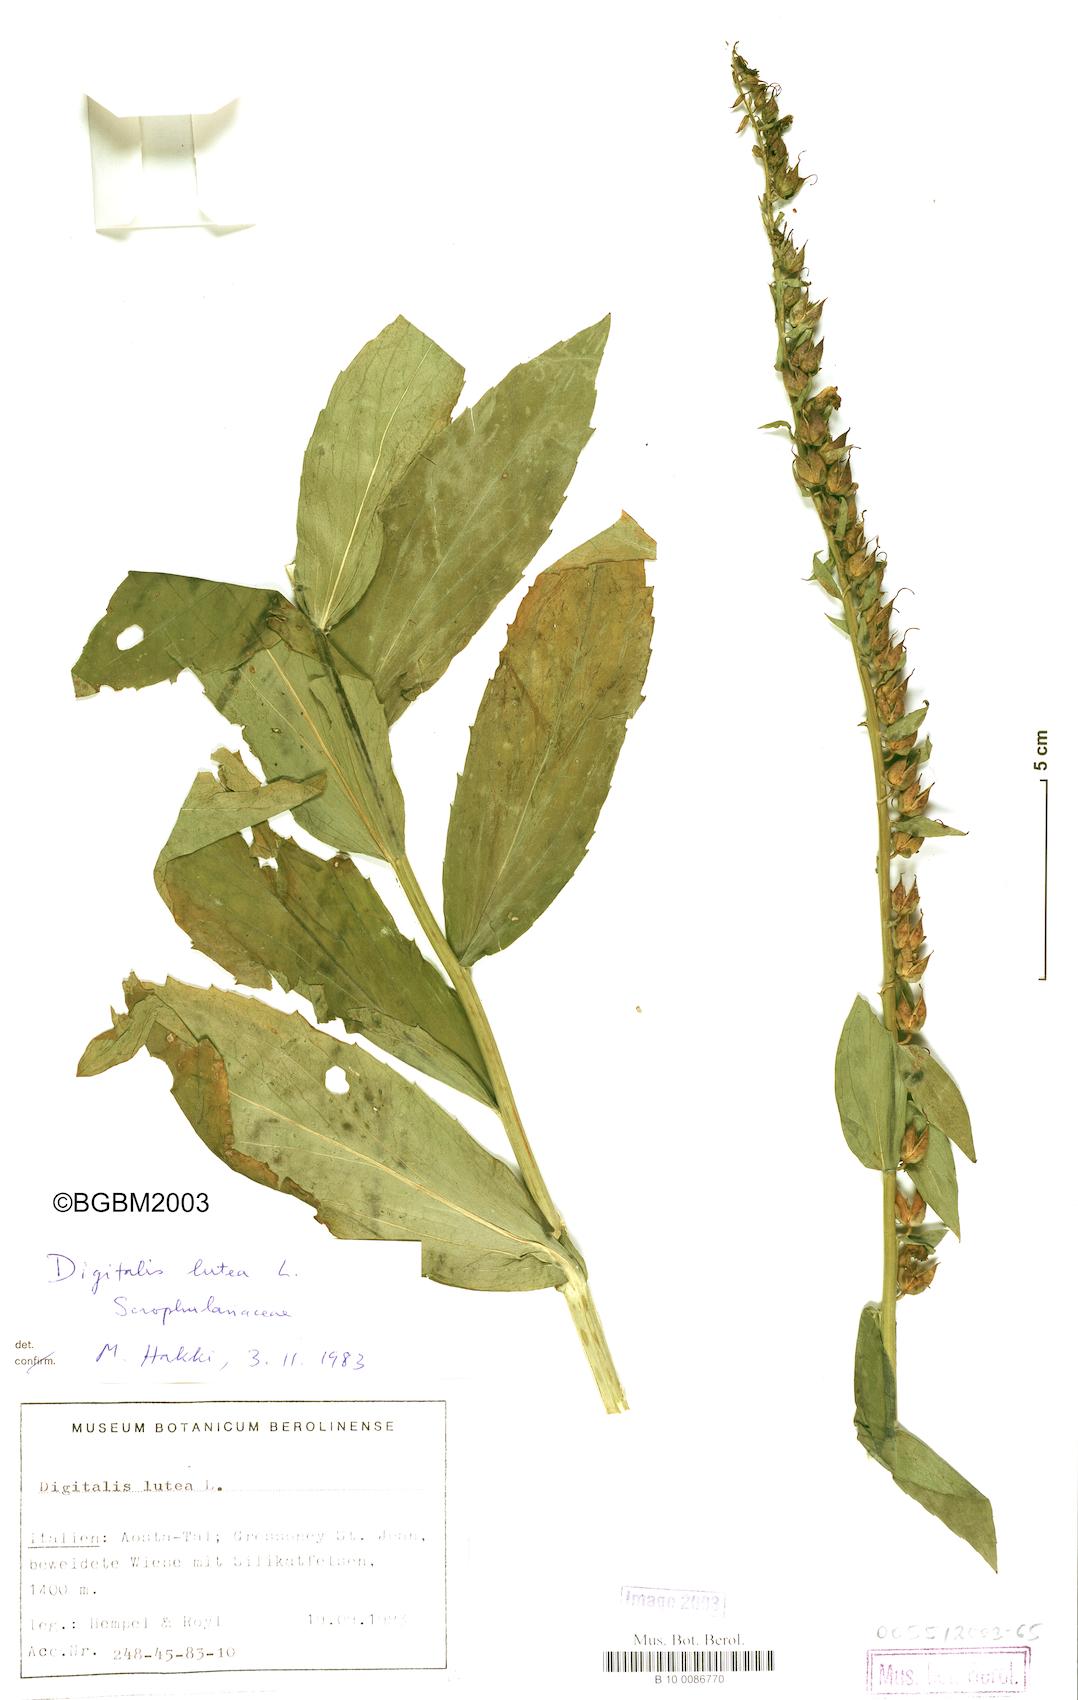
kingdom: Plantae
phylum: Tracheophyta
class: Magnoliopsida
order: Lamiales
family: Plantaginaceae
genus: Digitalis
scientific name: Digitalis lutea
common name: Straw foxglove
